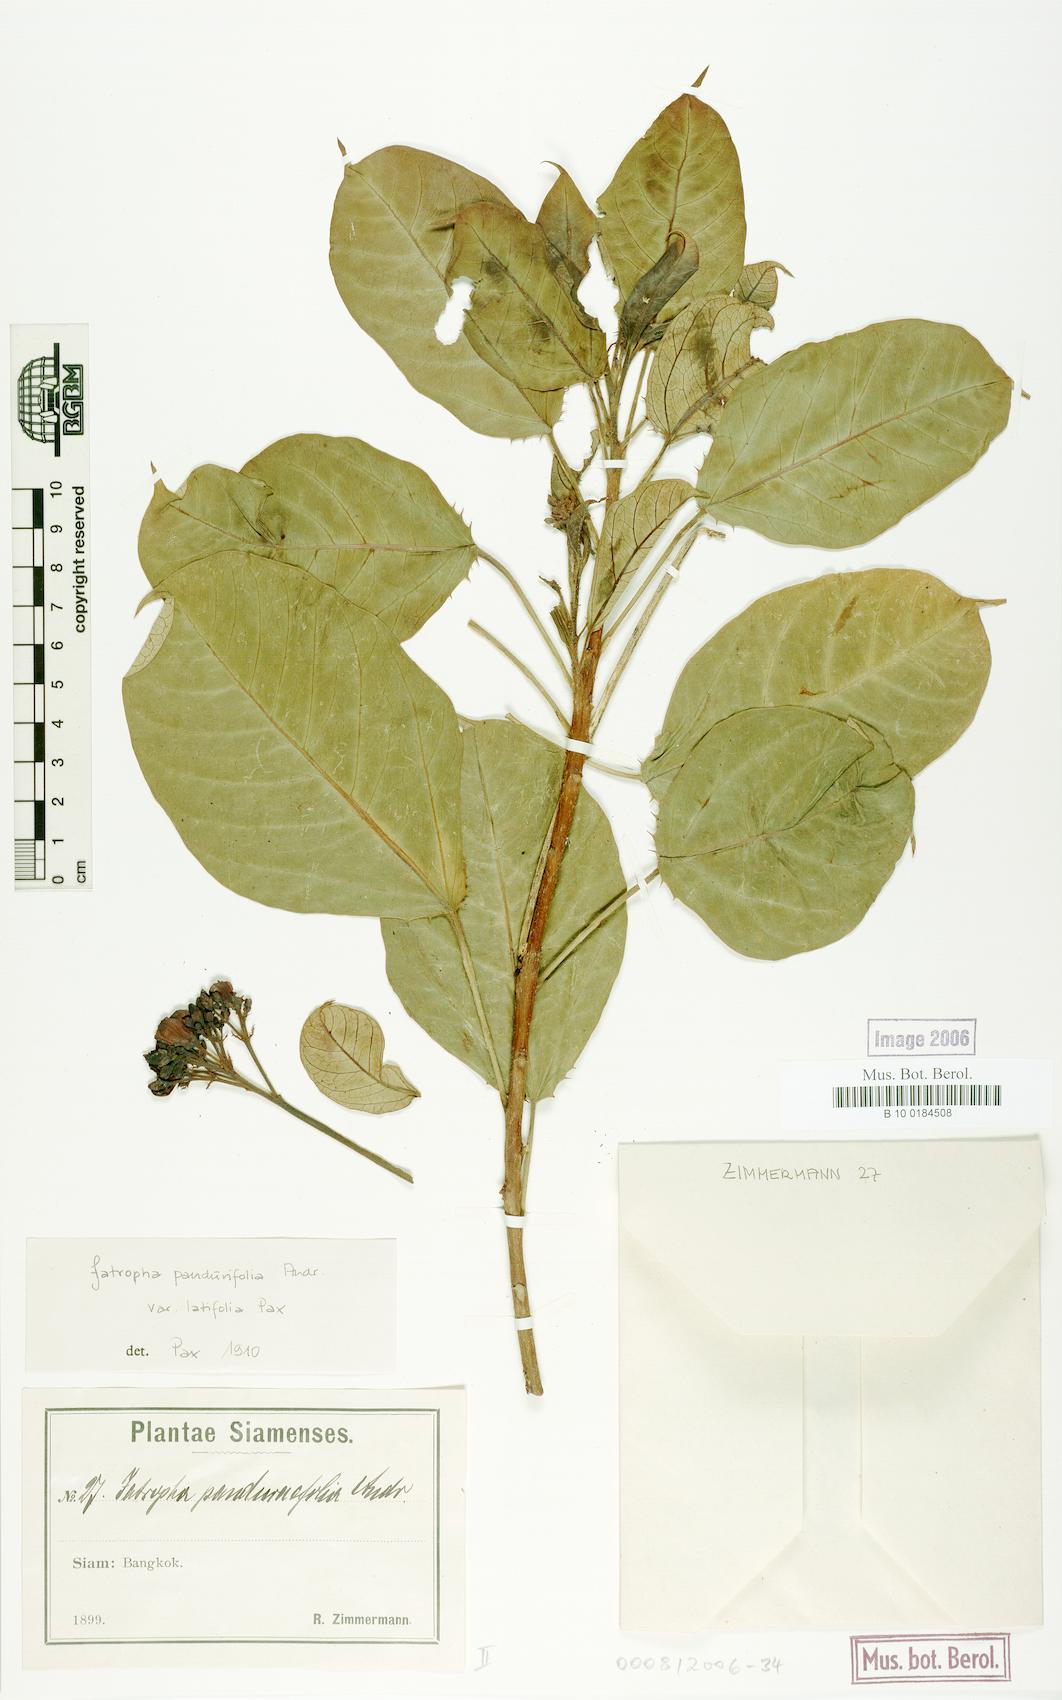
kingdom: Plantae
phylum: Tracheophyta
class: Magnoliopsida
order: Malpighiales
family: Euphorbiaceae
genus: Jatropha
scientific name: Jatropha integerrima
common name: Peregrina
